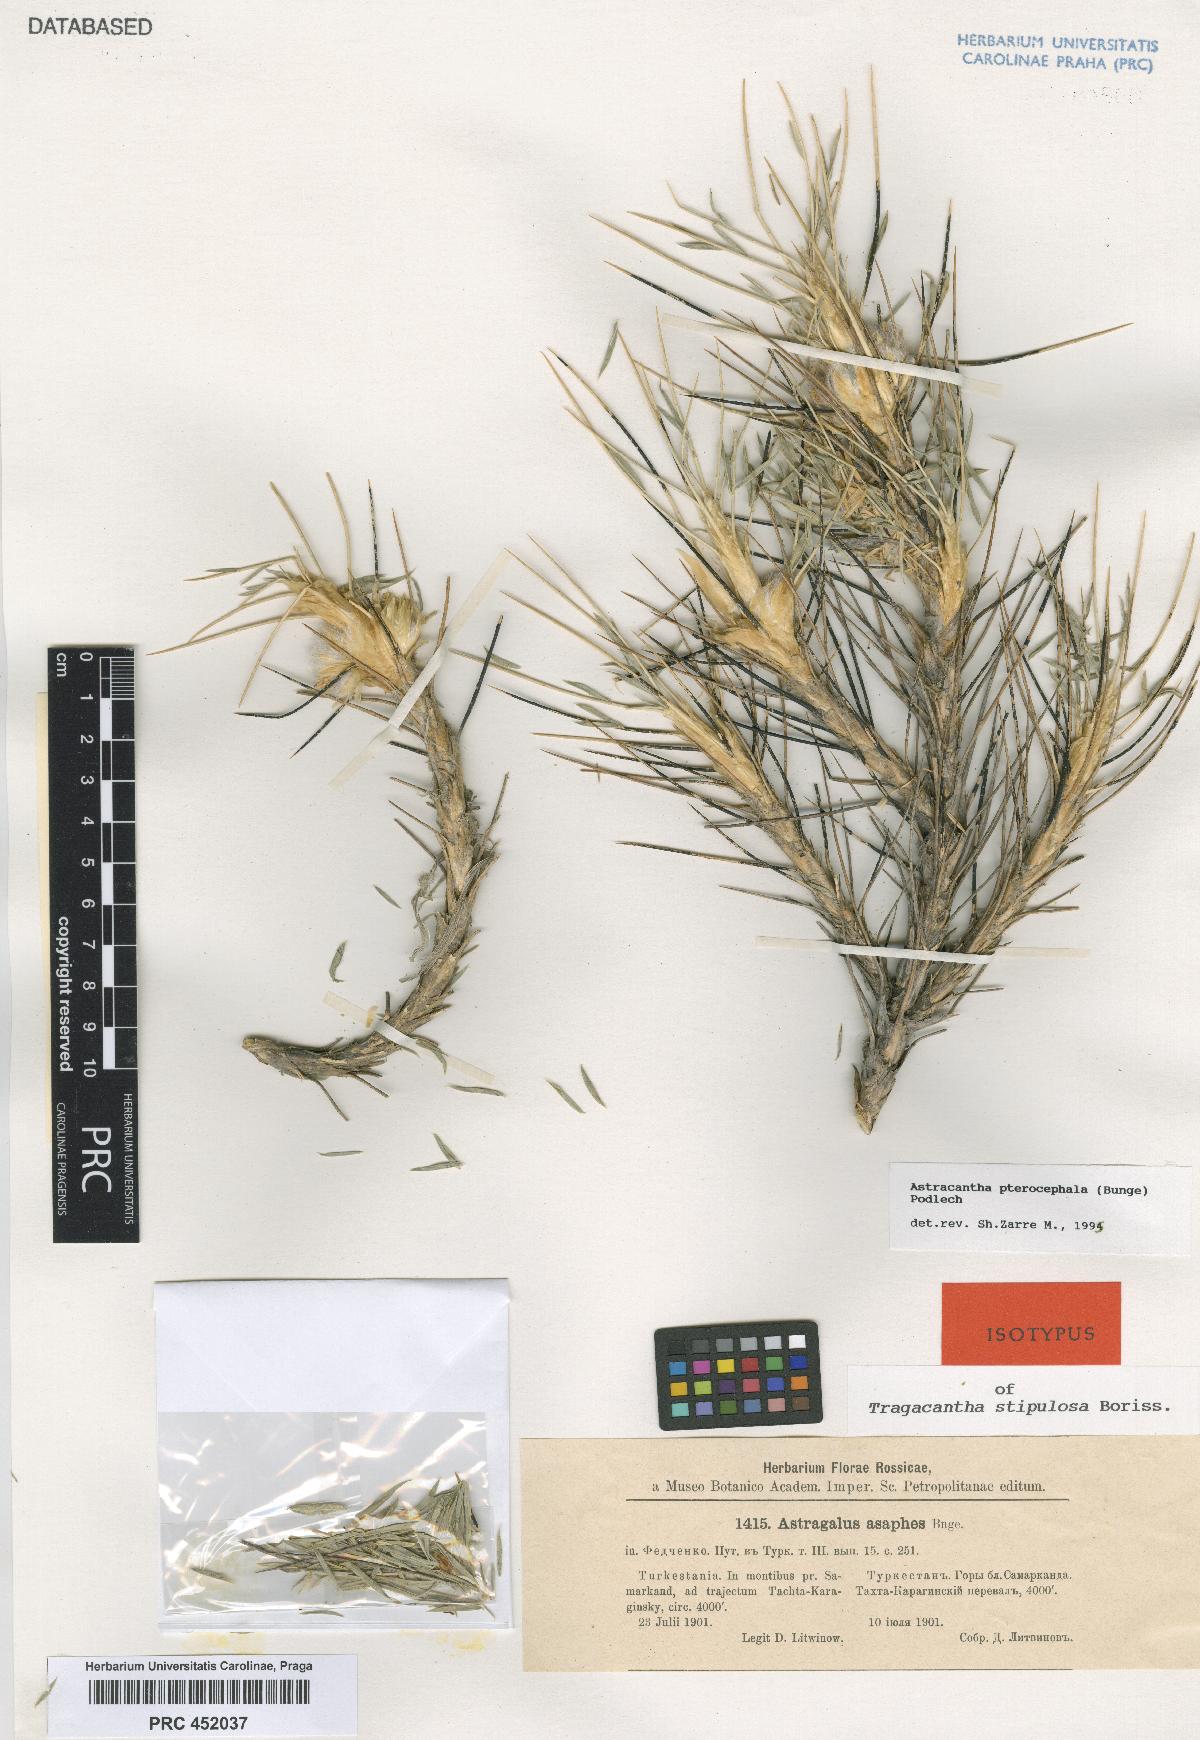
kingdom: Plantae
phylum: Tracheophyta
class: Magnoliopsida
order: Fabales
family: Fabaceae
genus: Astragalus
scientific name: Astragalus pterocephalus
